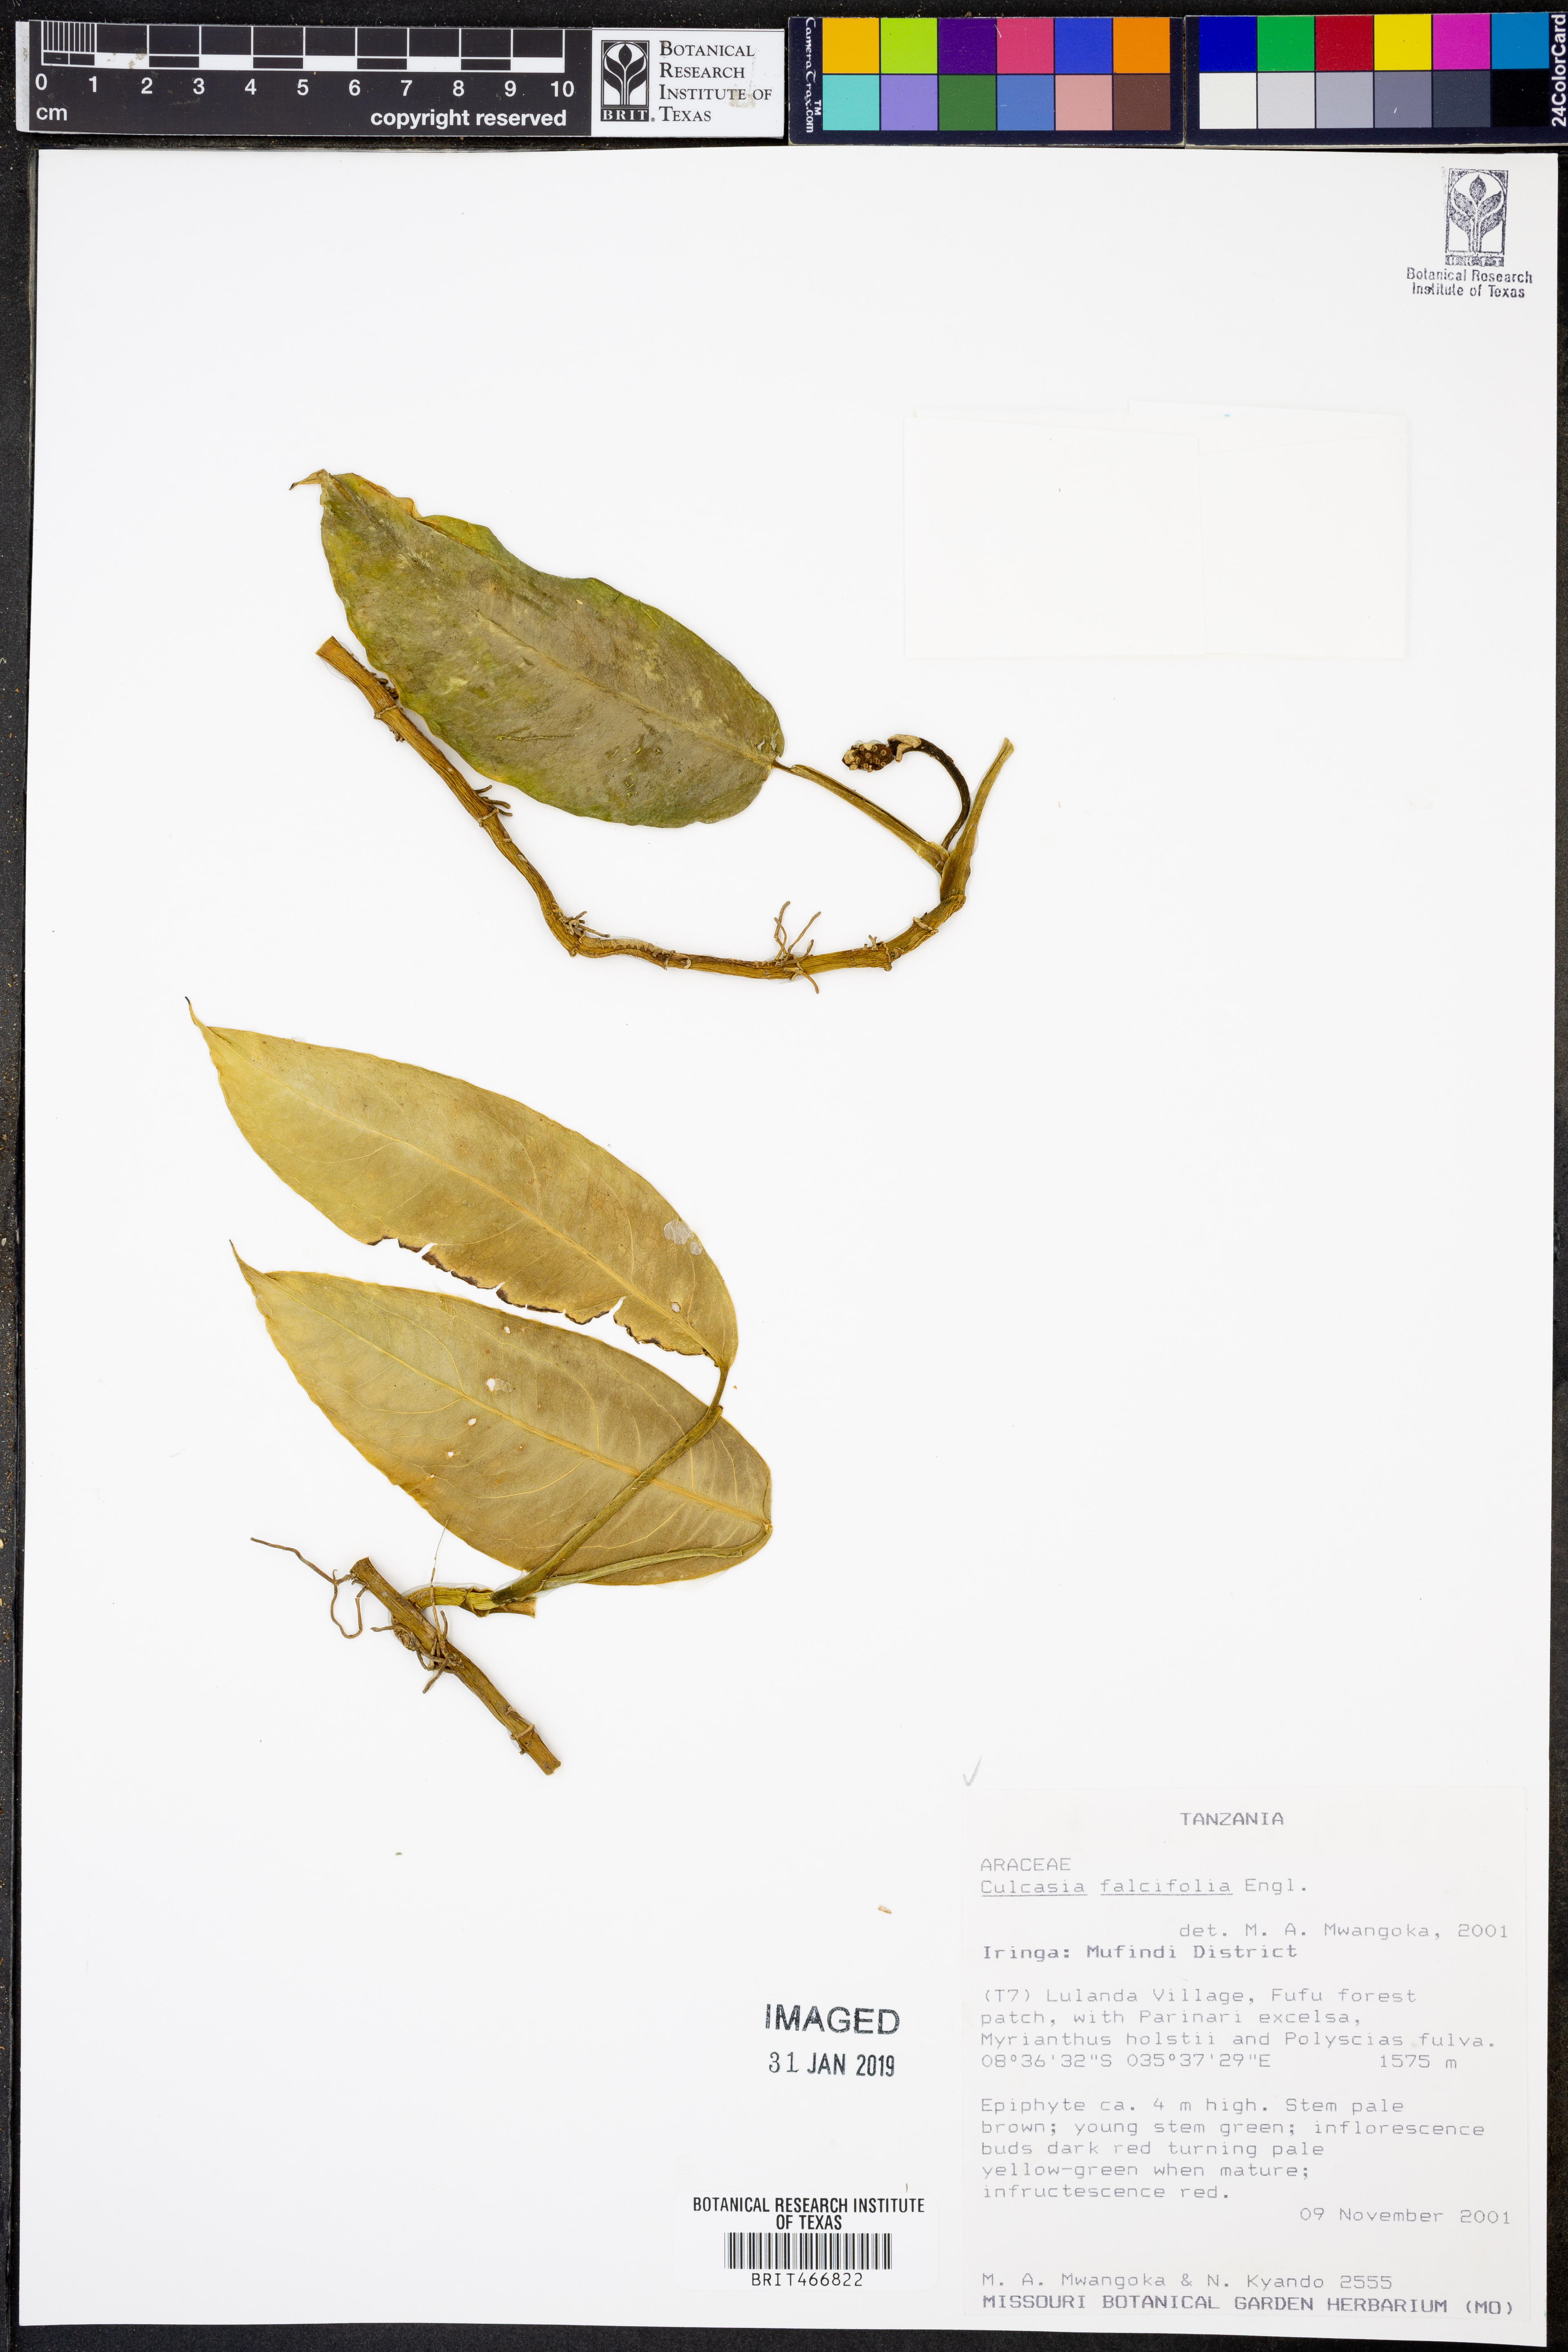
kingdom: Plantae
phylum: Tracheophyta
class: Liliopsida
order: Alismatales
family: Araceae
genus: Culcasia
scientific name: Culcasia falcifolia
